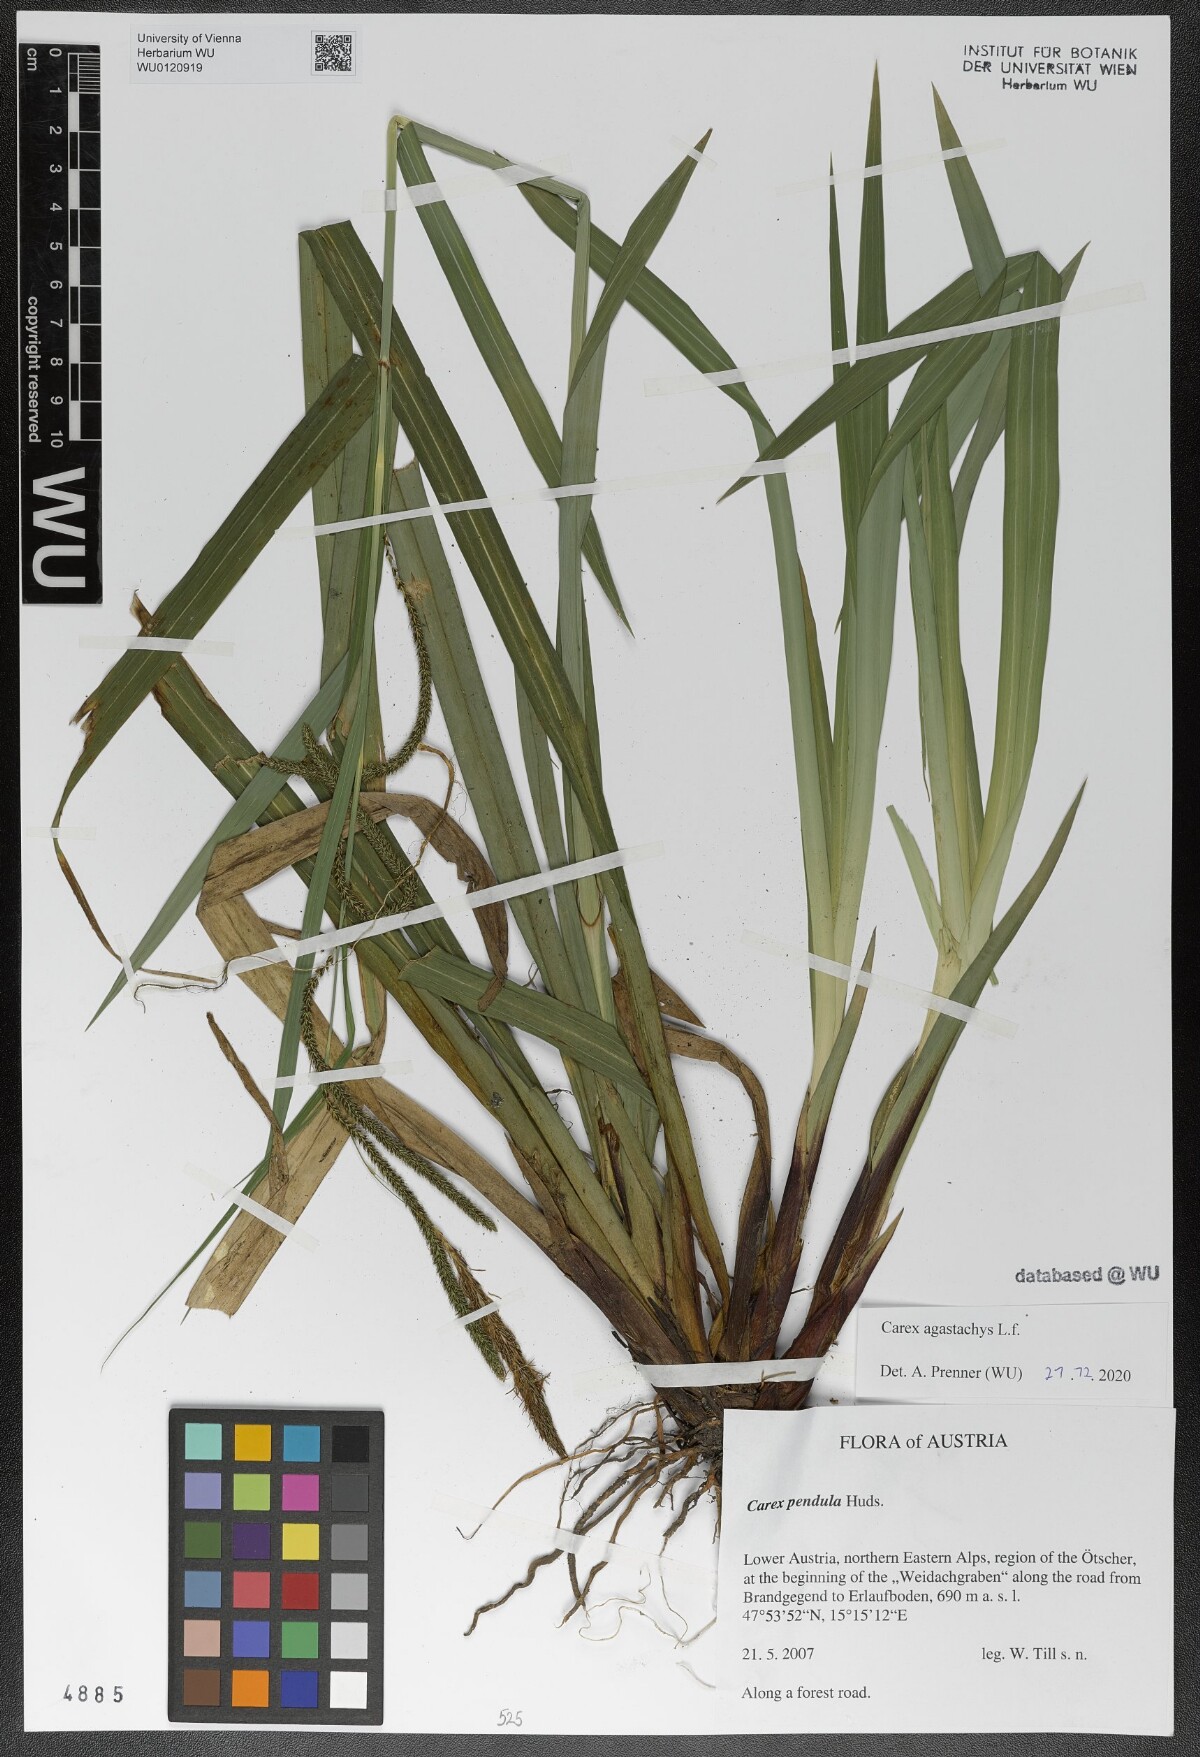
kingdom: Plantae
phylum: Tracheophyta
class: Liliopsida
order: Poales
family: Cyperaceae
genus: Carex
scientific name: Carex agastachys
